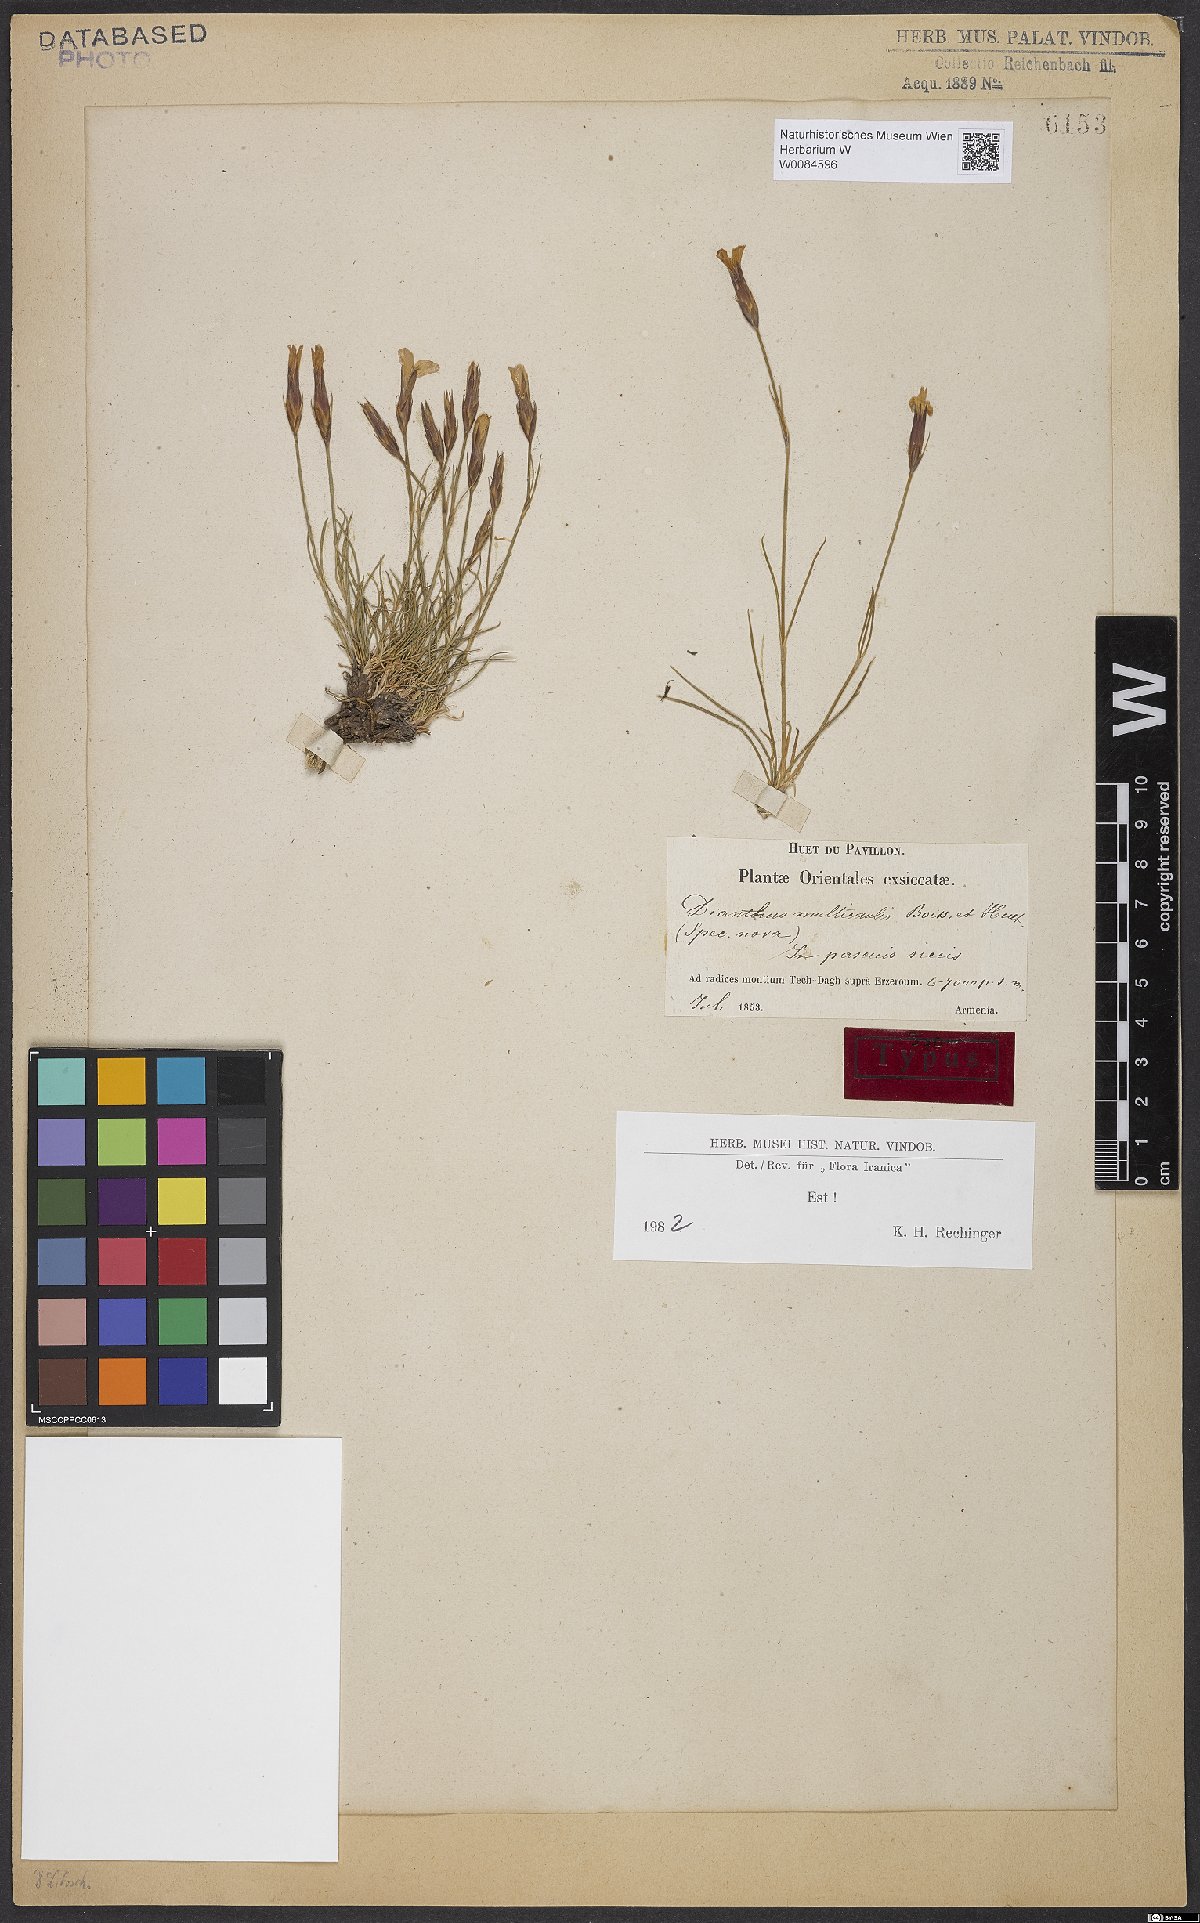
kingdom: Plantae
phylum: Tracheophyta
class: Magnoliopsida
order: Caryophyllales
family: Caryophyllaceae
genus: Dianthus
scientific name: Dianthus cretaceus
